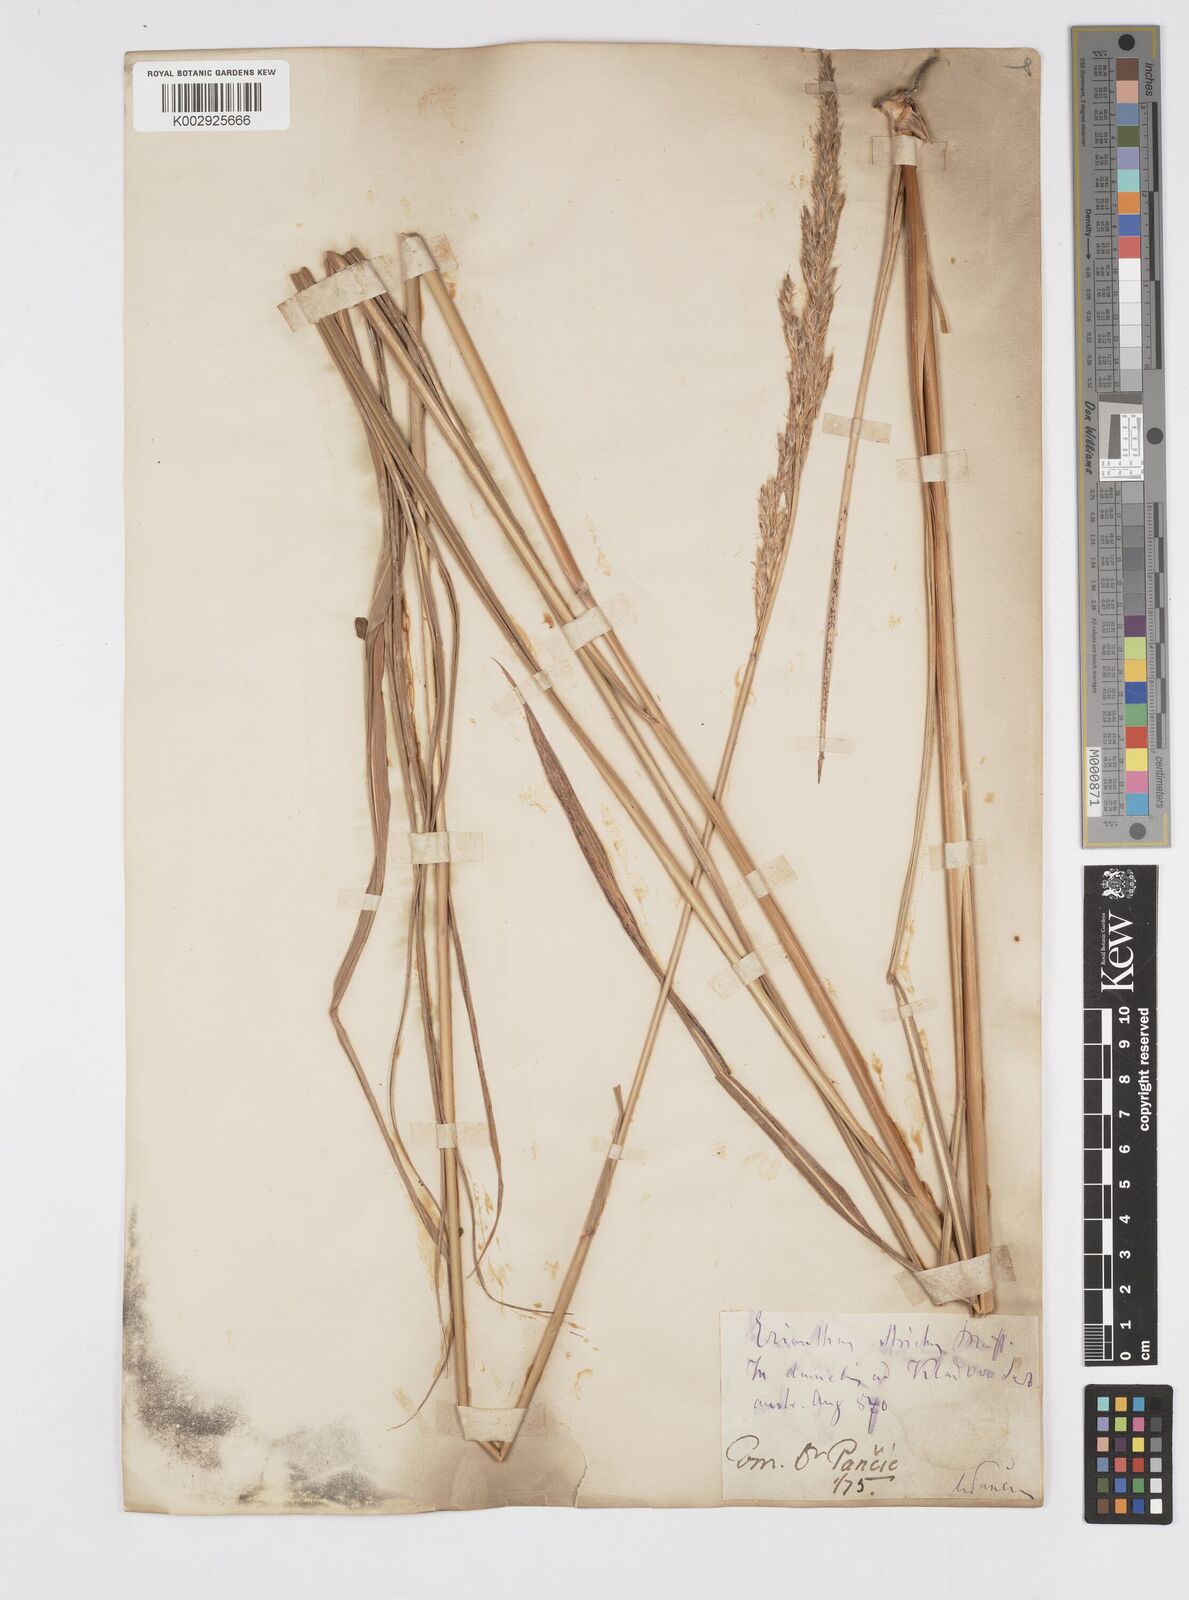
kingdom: Plantae
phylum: Tracheophyta
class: Liliopsida
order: Poales
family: Poaceae
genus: Tripidium
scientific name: Tripidium strictum
